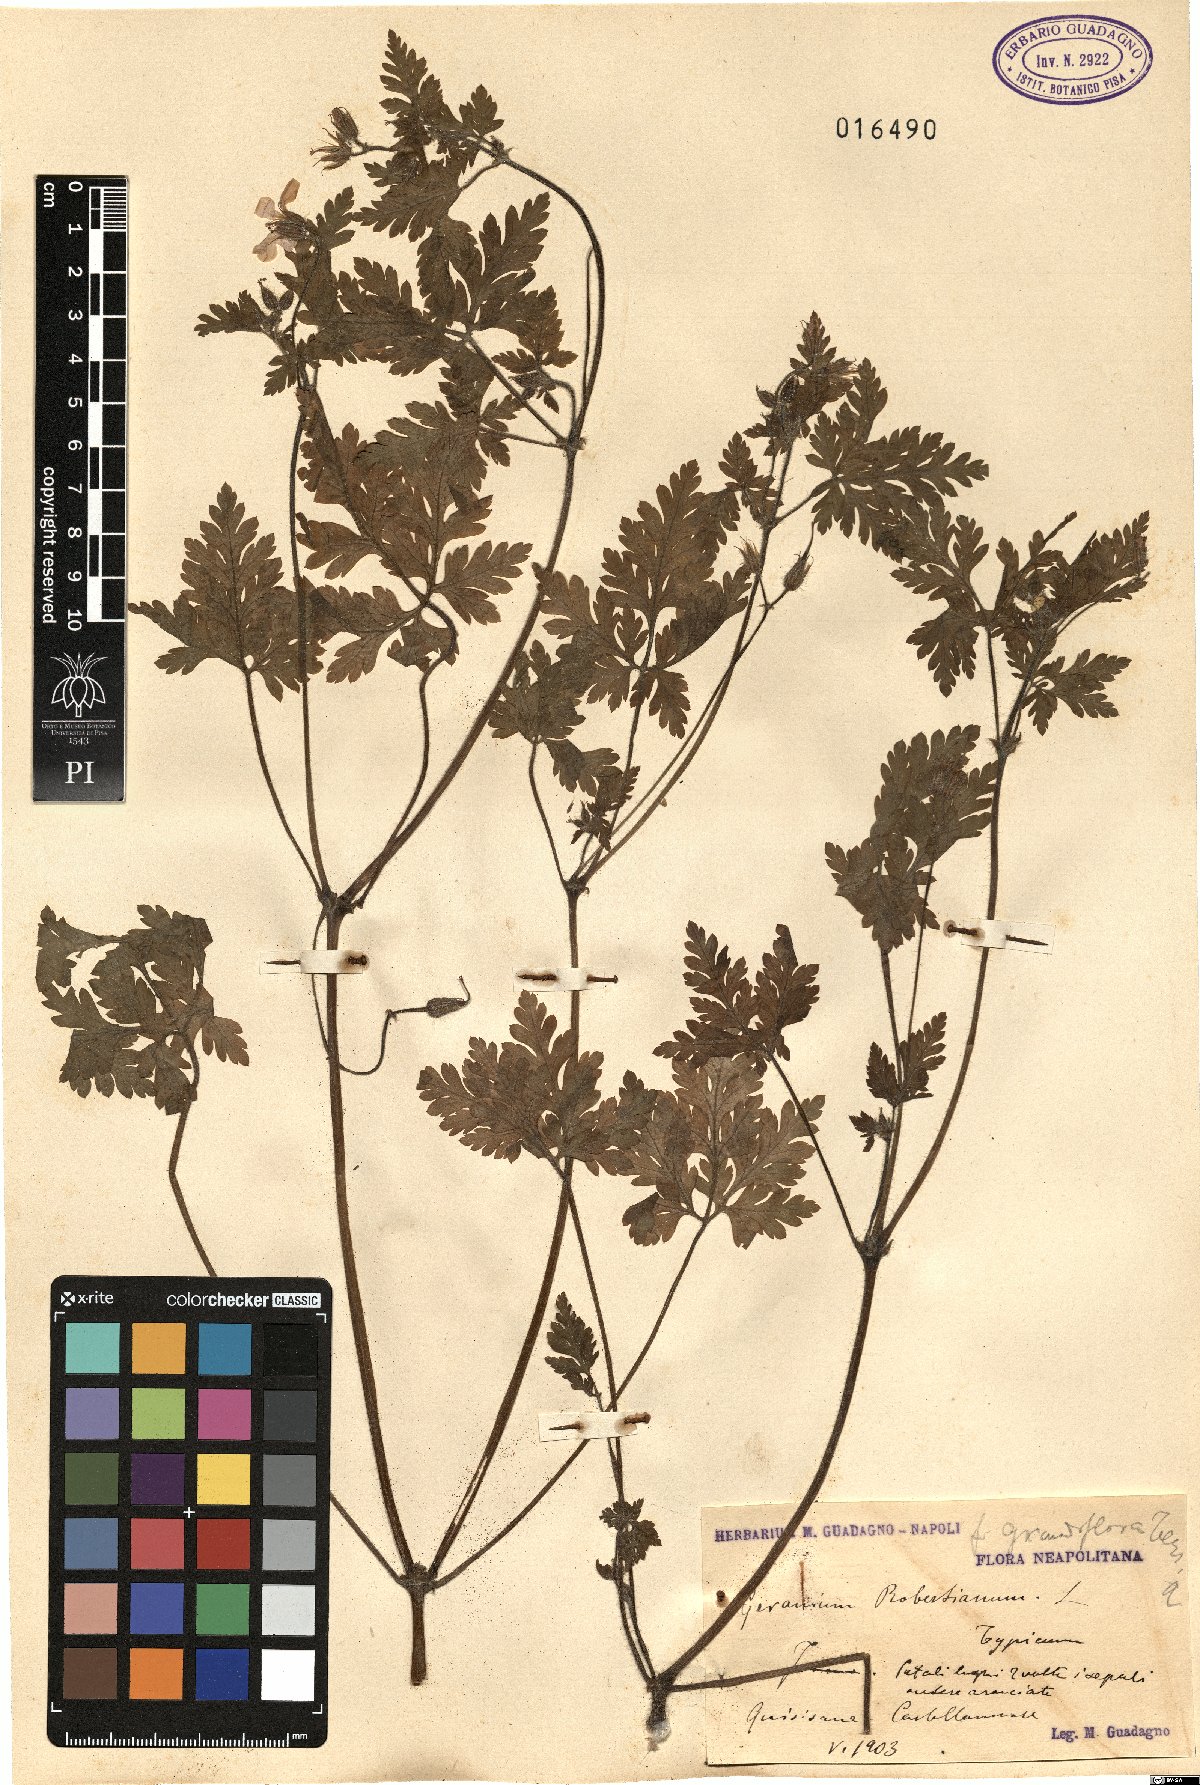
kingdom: Plantae
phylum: Tracheophyta
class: Magnoliopsida
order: Geraniales
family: Geraniaceae
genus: Geranium
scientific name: Geranium robertianum
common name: Herb-robert
